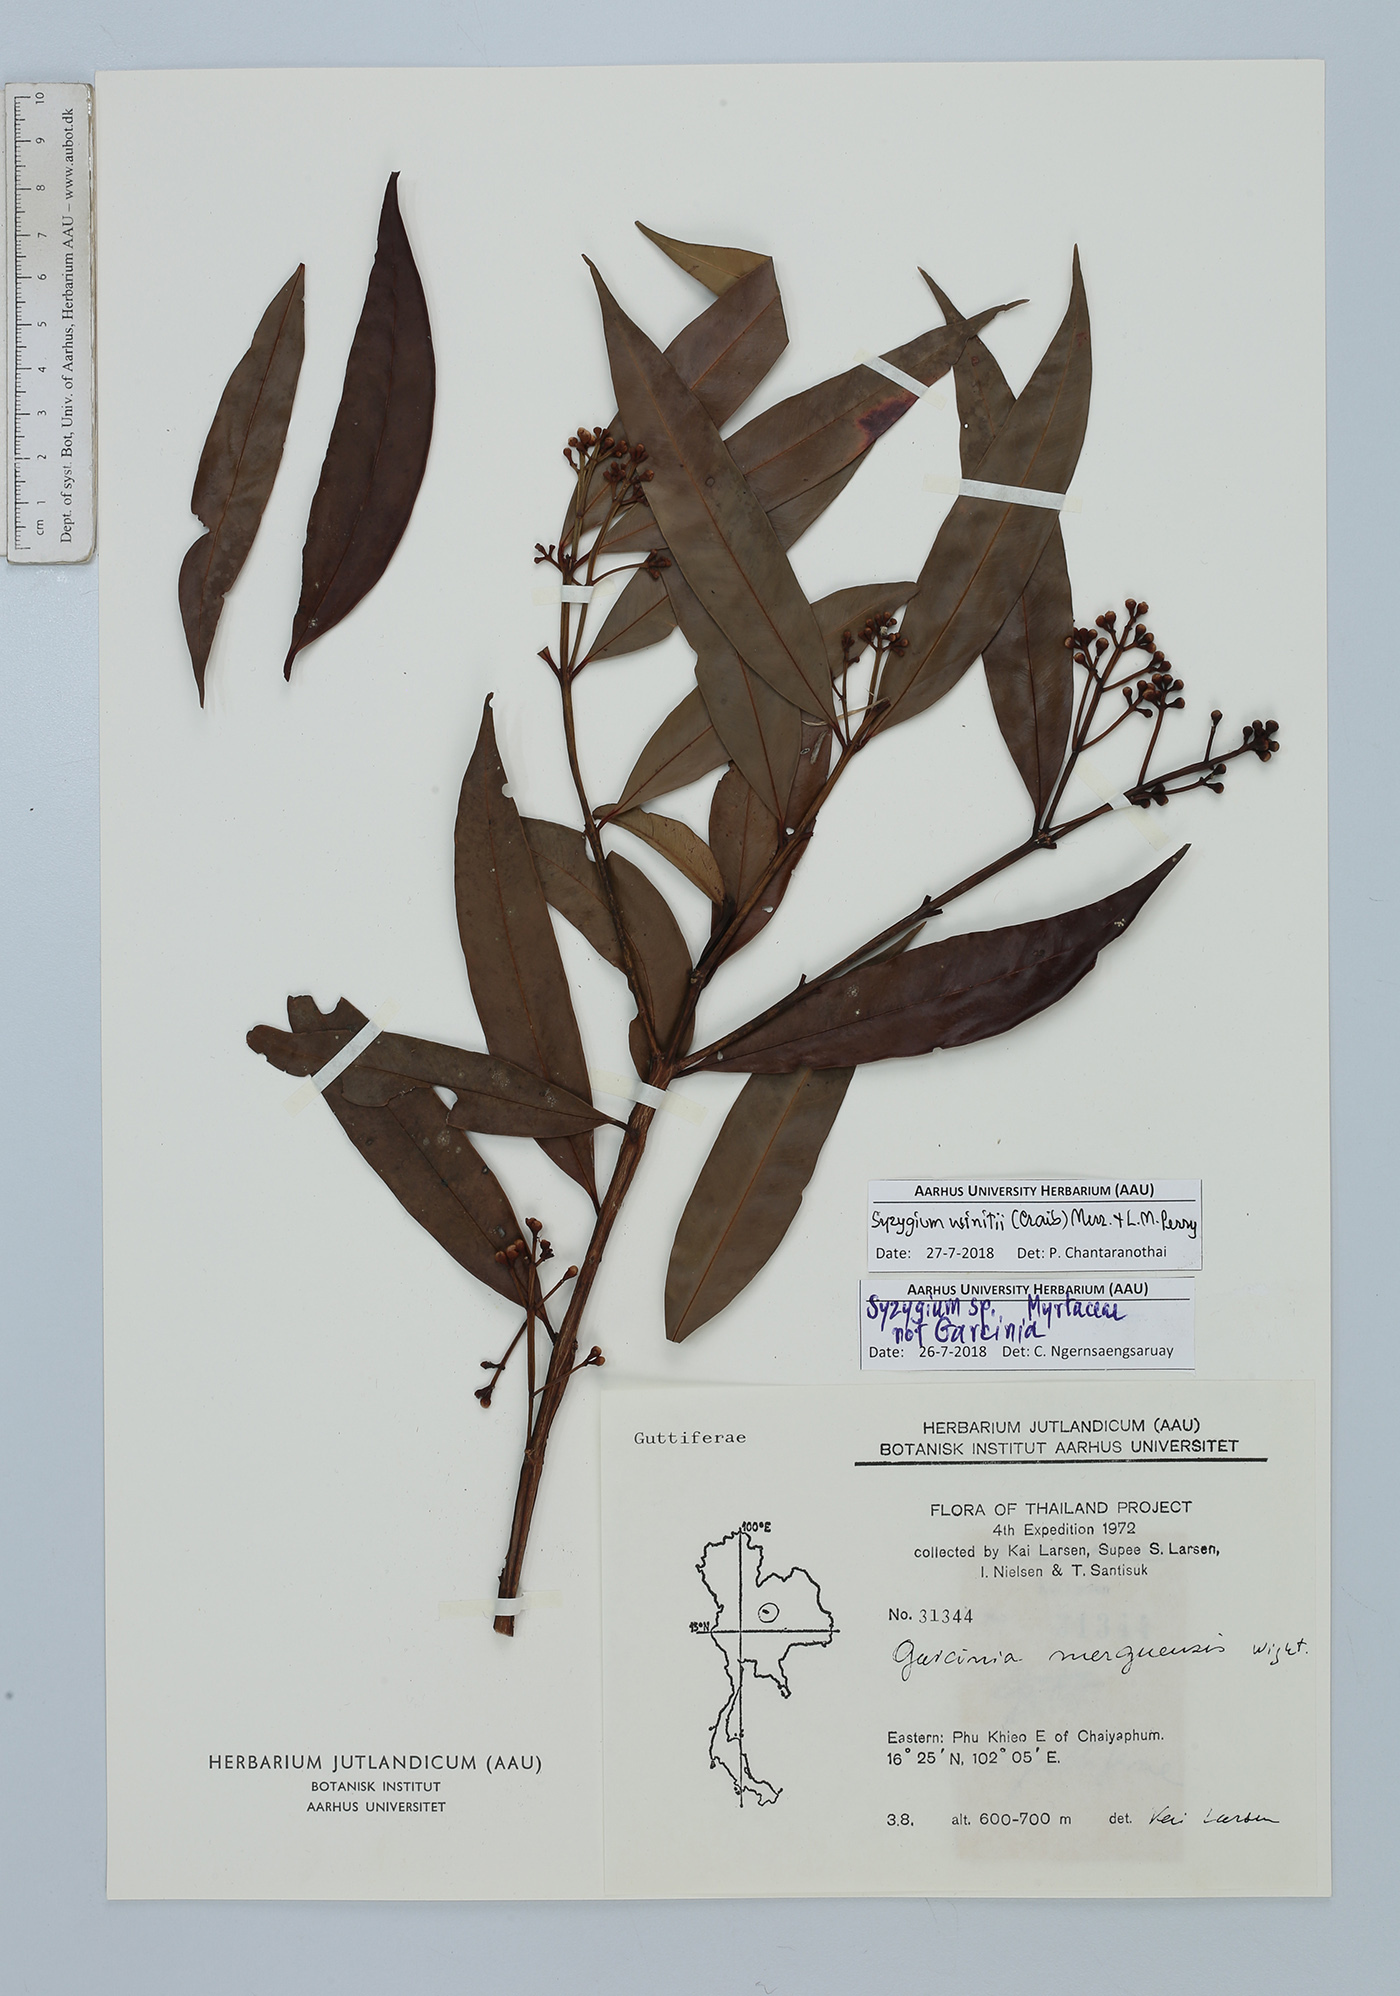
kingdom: Plantae
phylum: Tracheophyta
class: Magnoliopsida
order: Myrtales
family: Myrtaceae
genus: Syzygium
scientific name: Syzygium winitii
